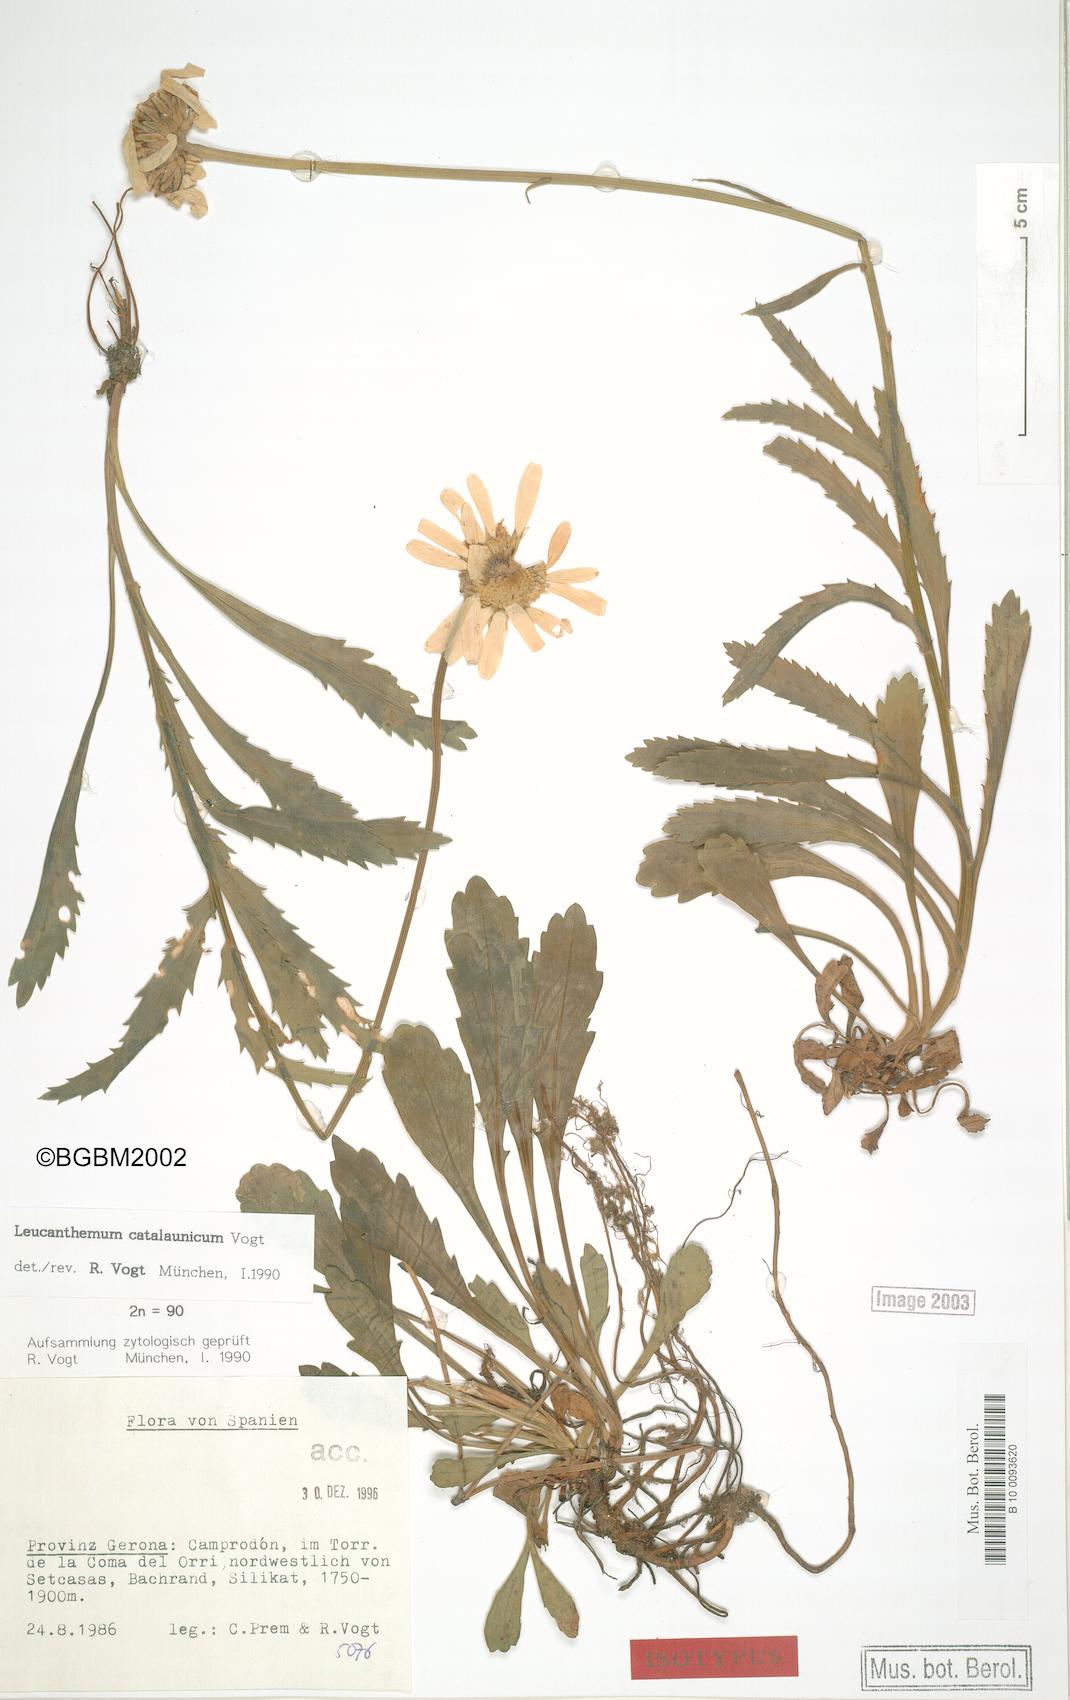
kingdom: Plantae
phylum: Tracheophyta
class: Magnoliopsida
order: Asterales
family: Asteraceae
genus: Leucanthemum
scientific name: Leucanthemum catalaunicum
